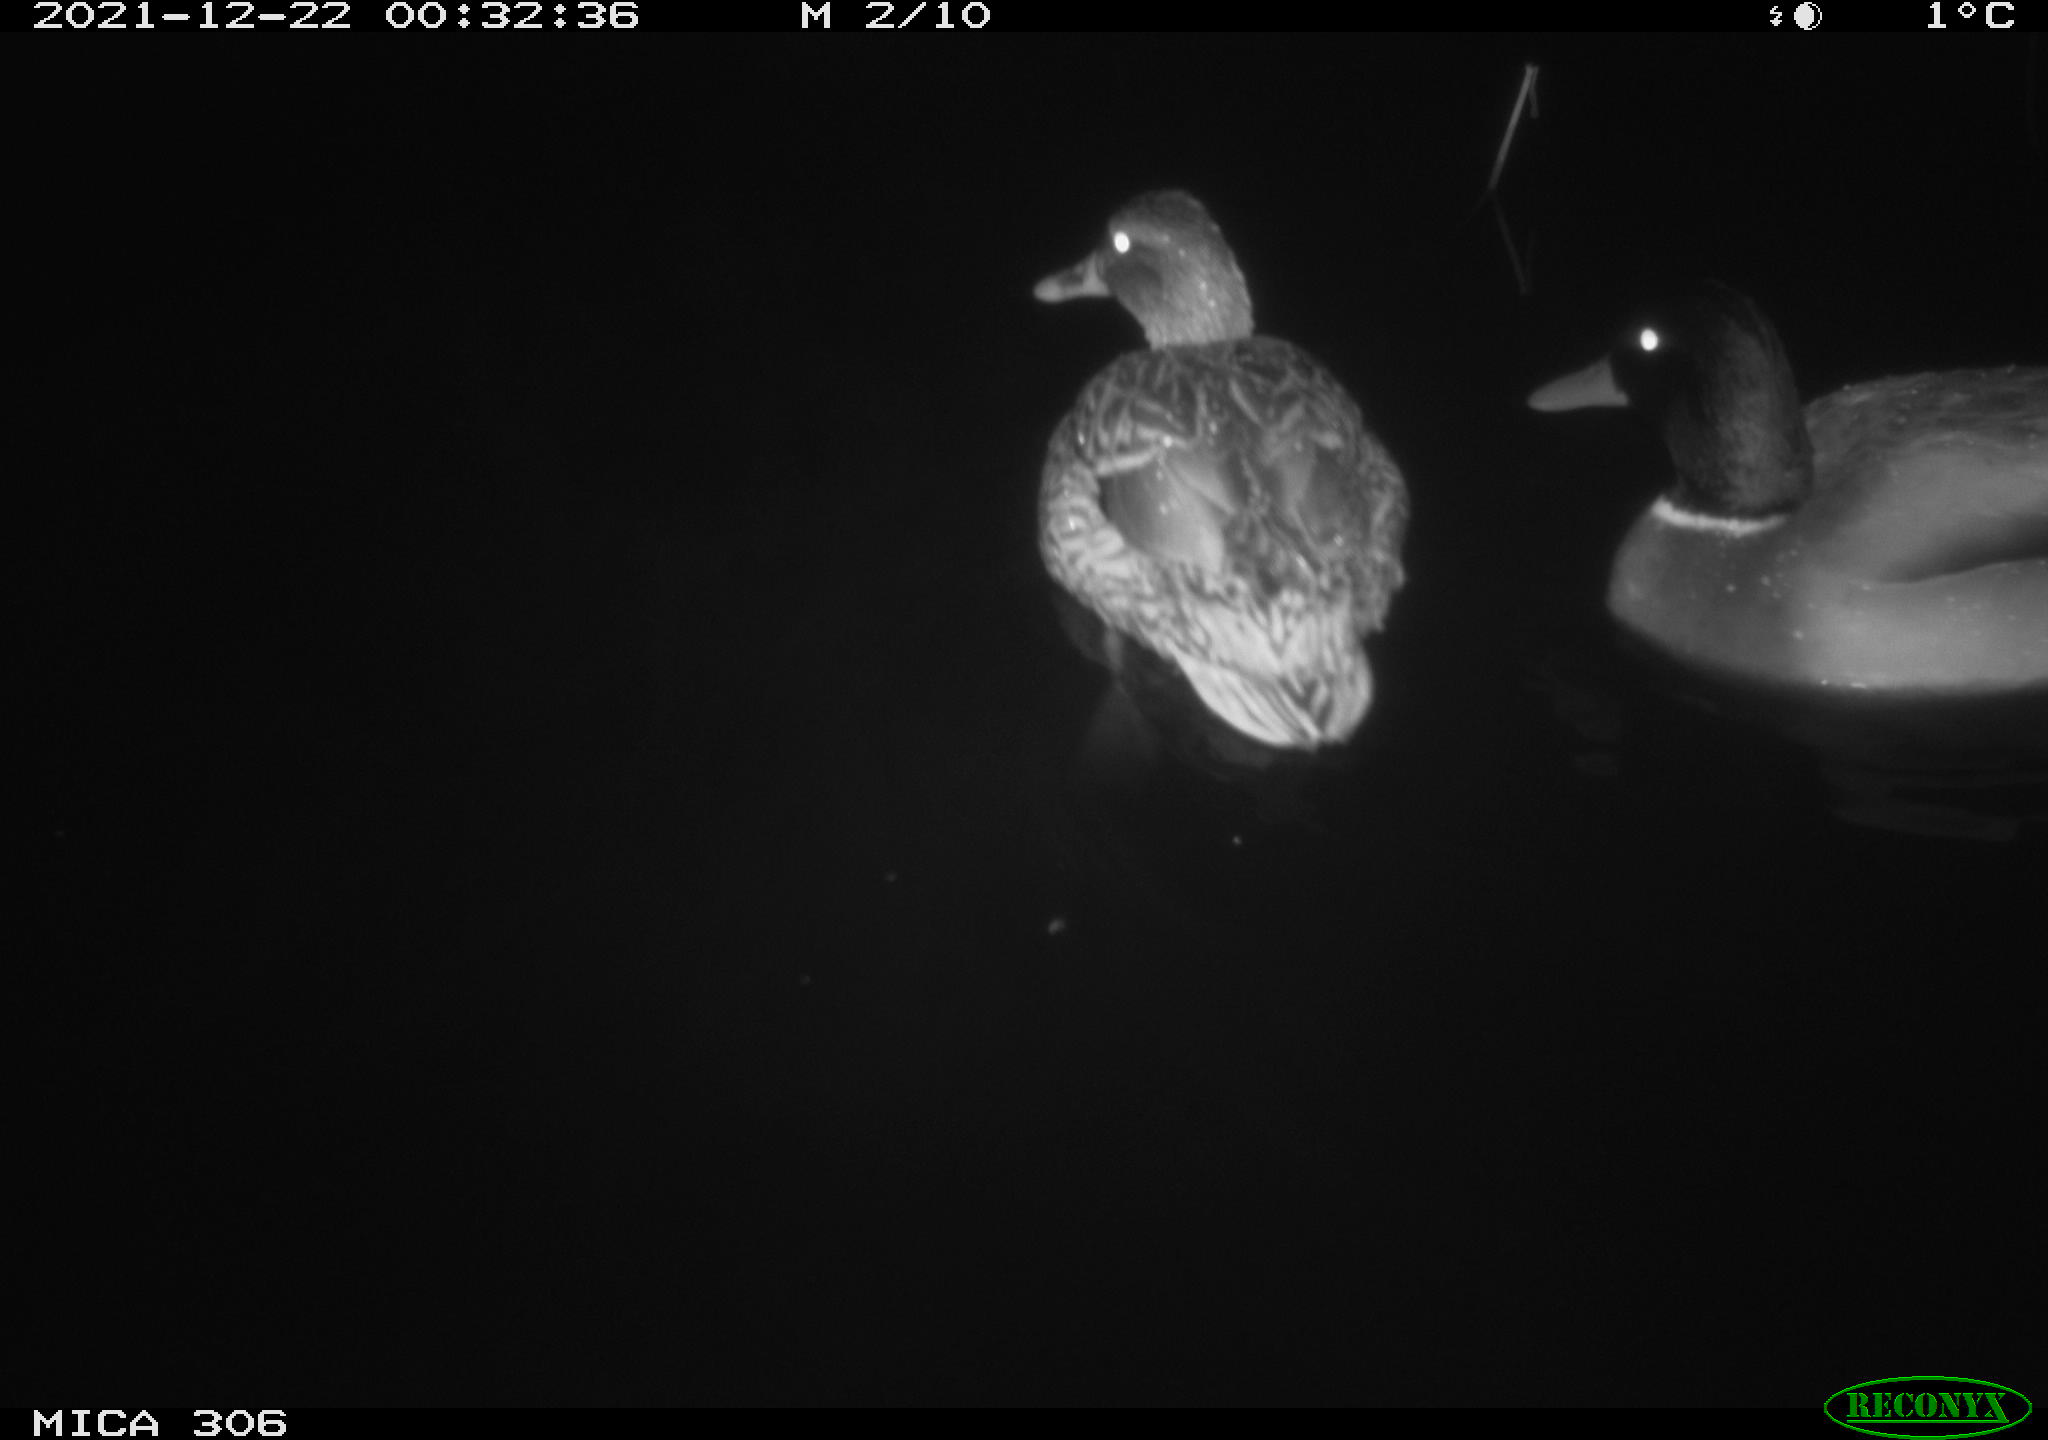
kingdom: Animalia
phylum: Chordata
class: Aves
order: Anseriformes
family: Anatidae
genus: Anas
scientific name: Anas
